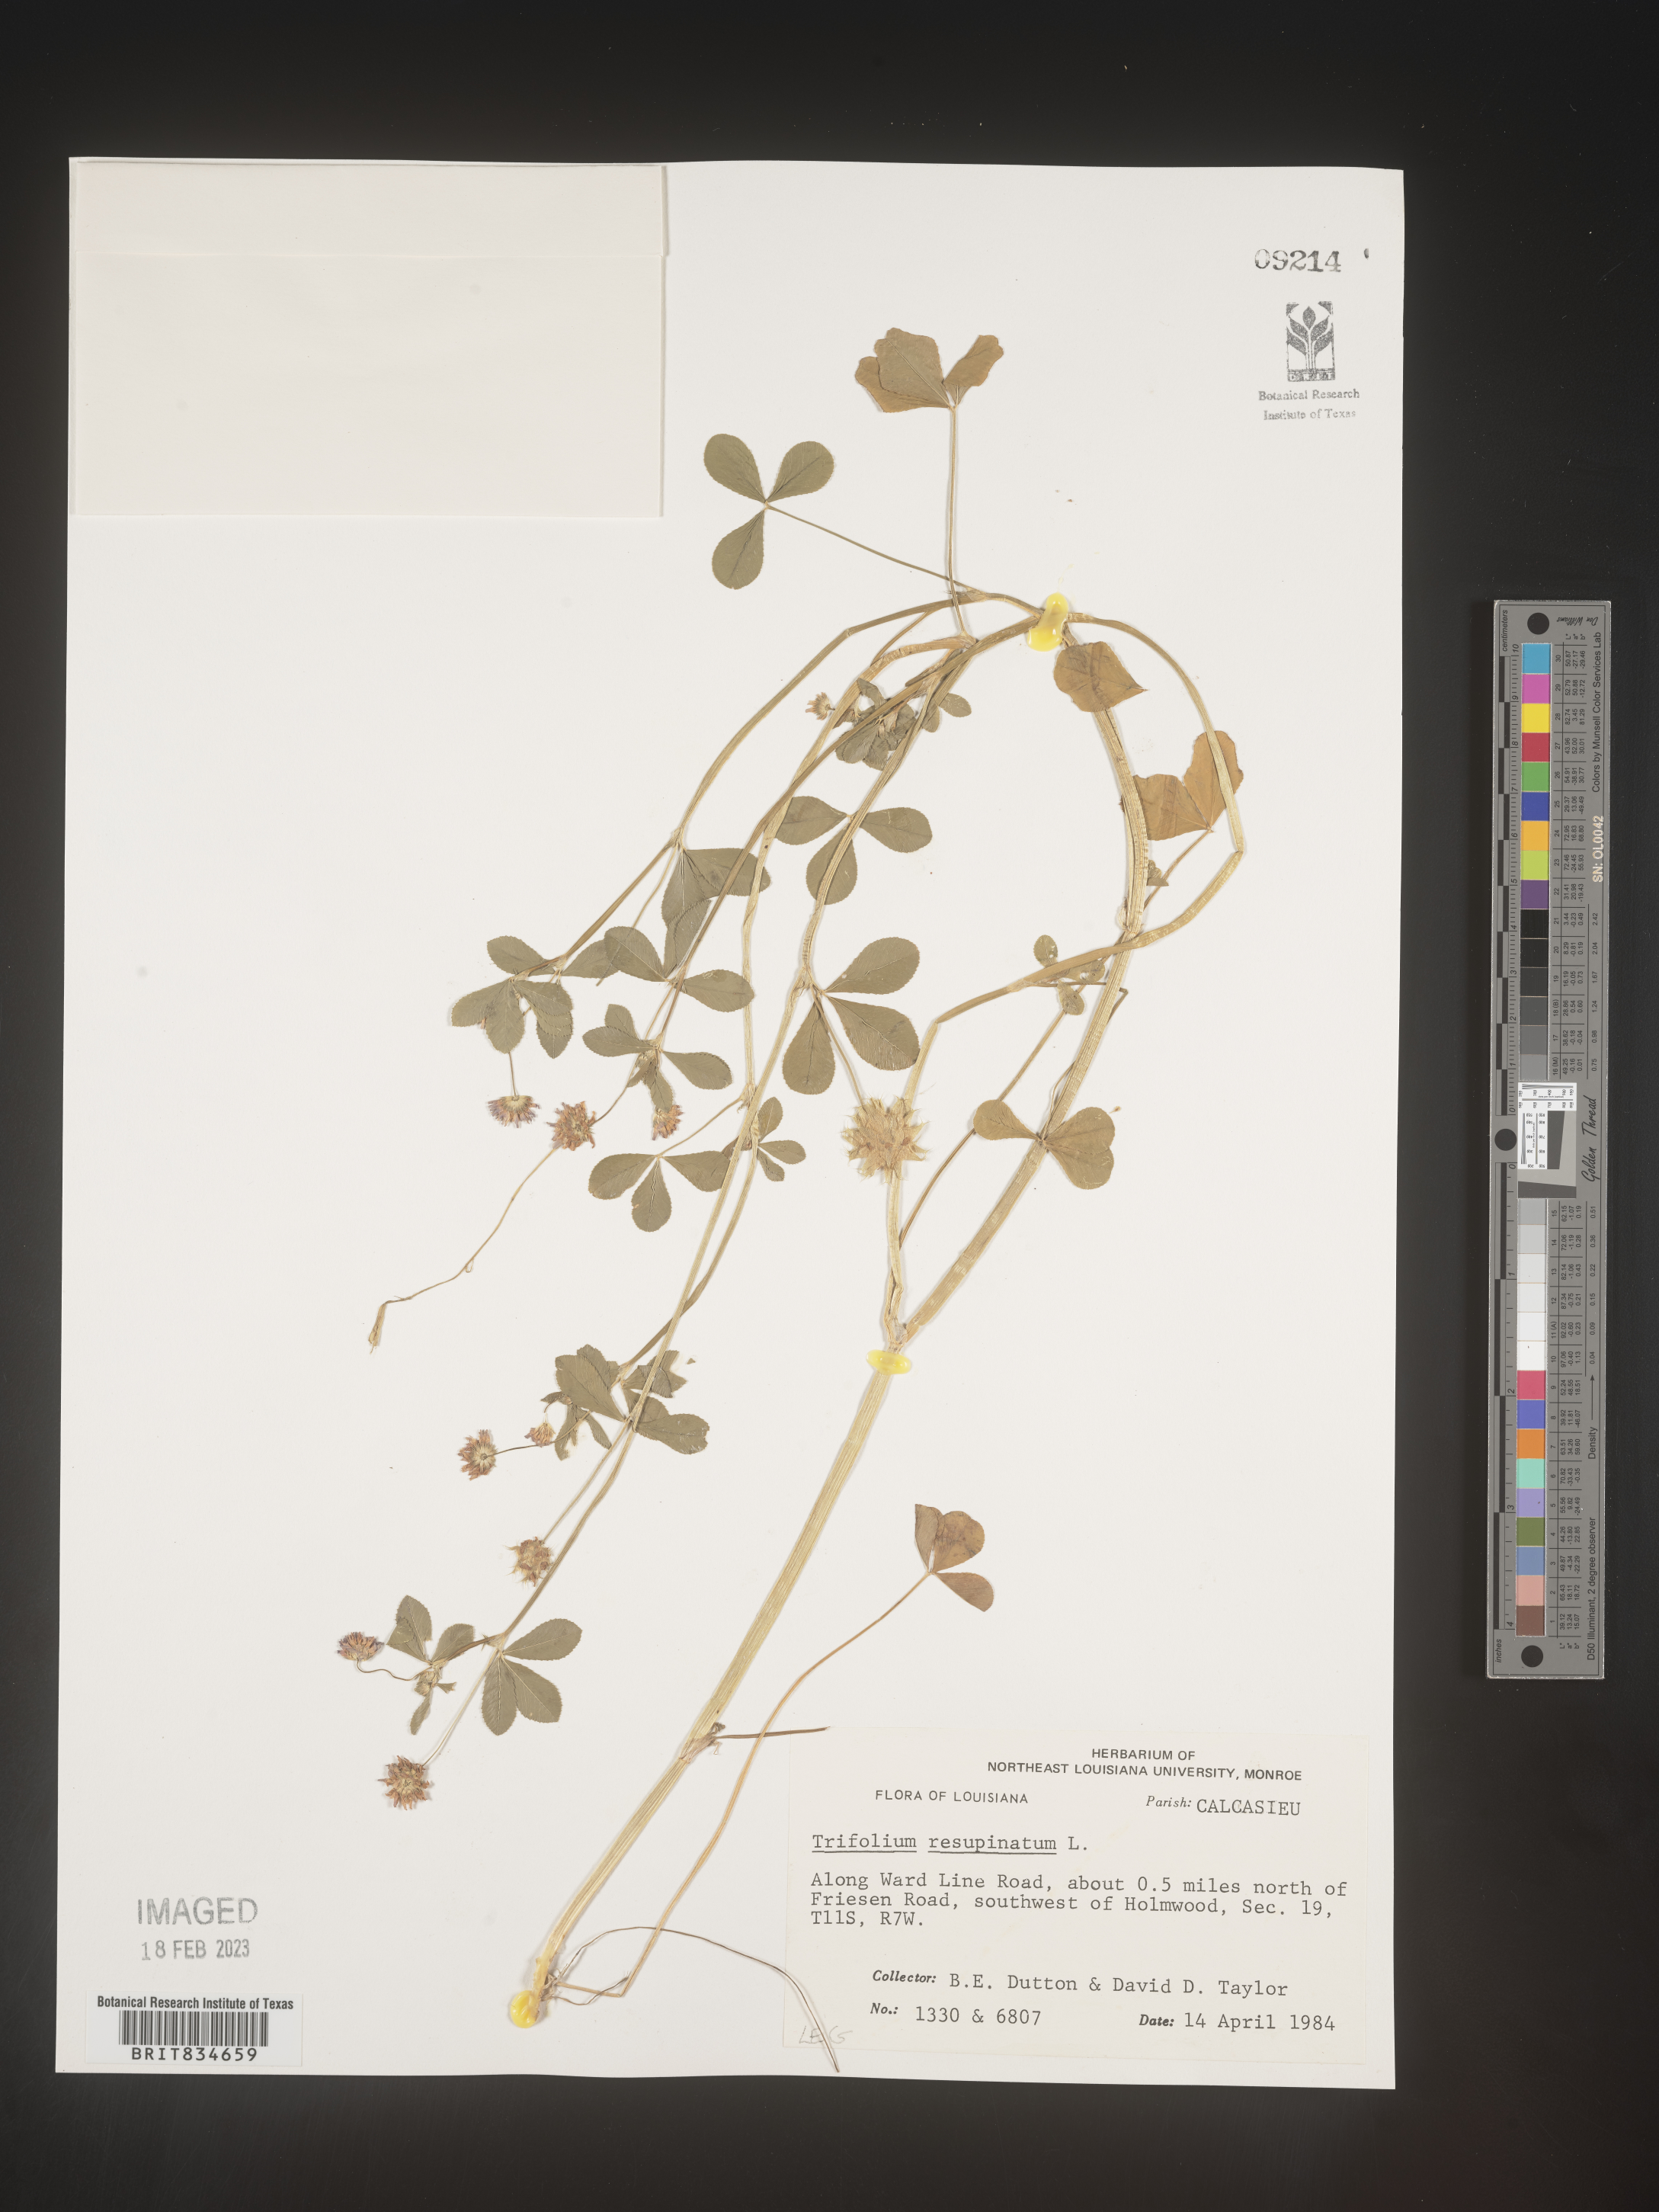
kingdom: Plantae
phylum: Tracheophyta
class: Magnoliopsida
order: Fabales
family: Fabaceae
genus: Trifolium
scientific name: Trifolium resupinatum
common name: Reversed clover
